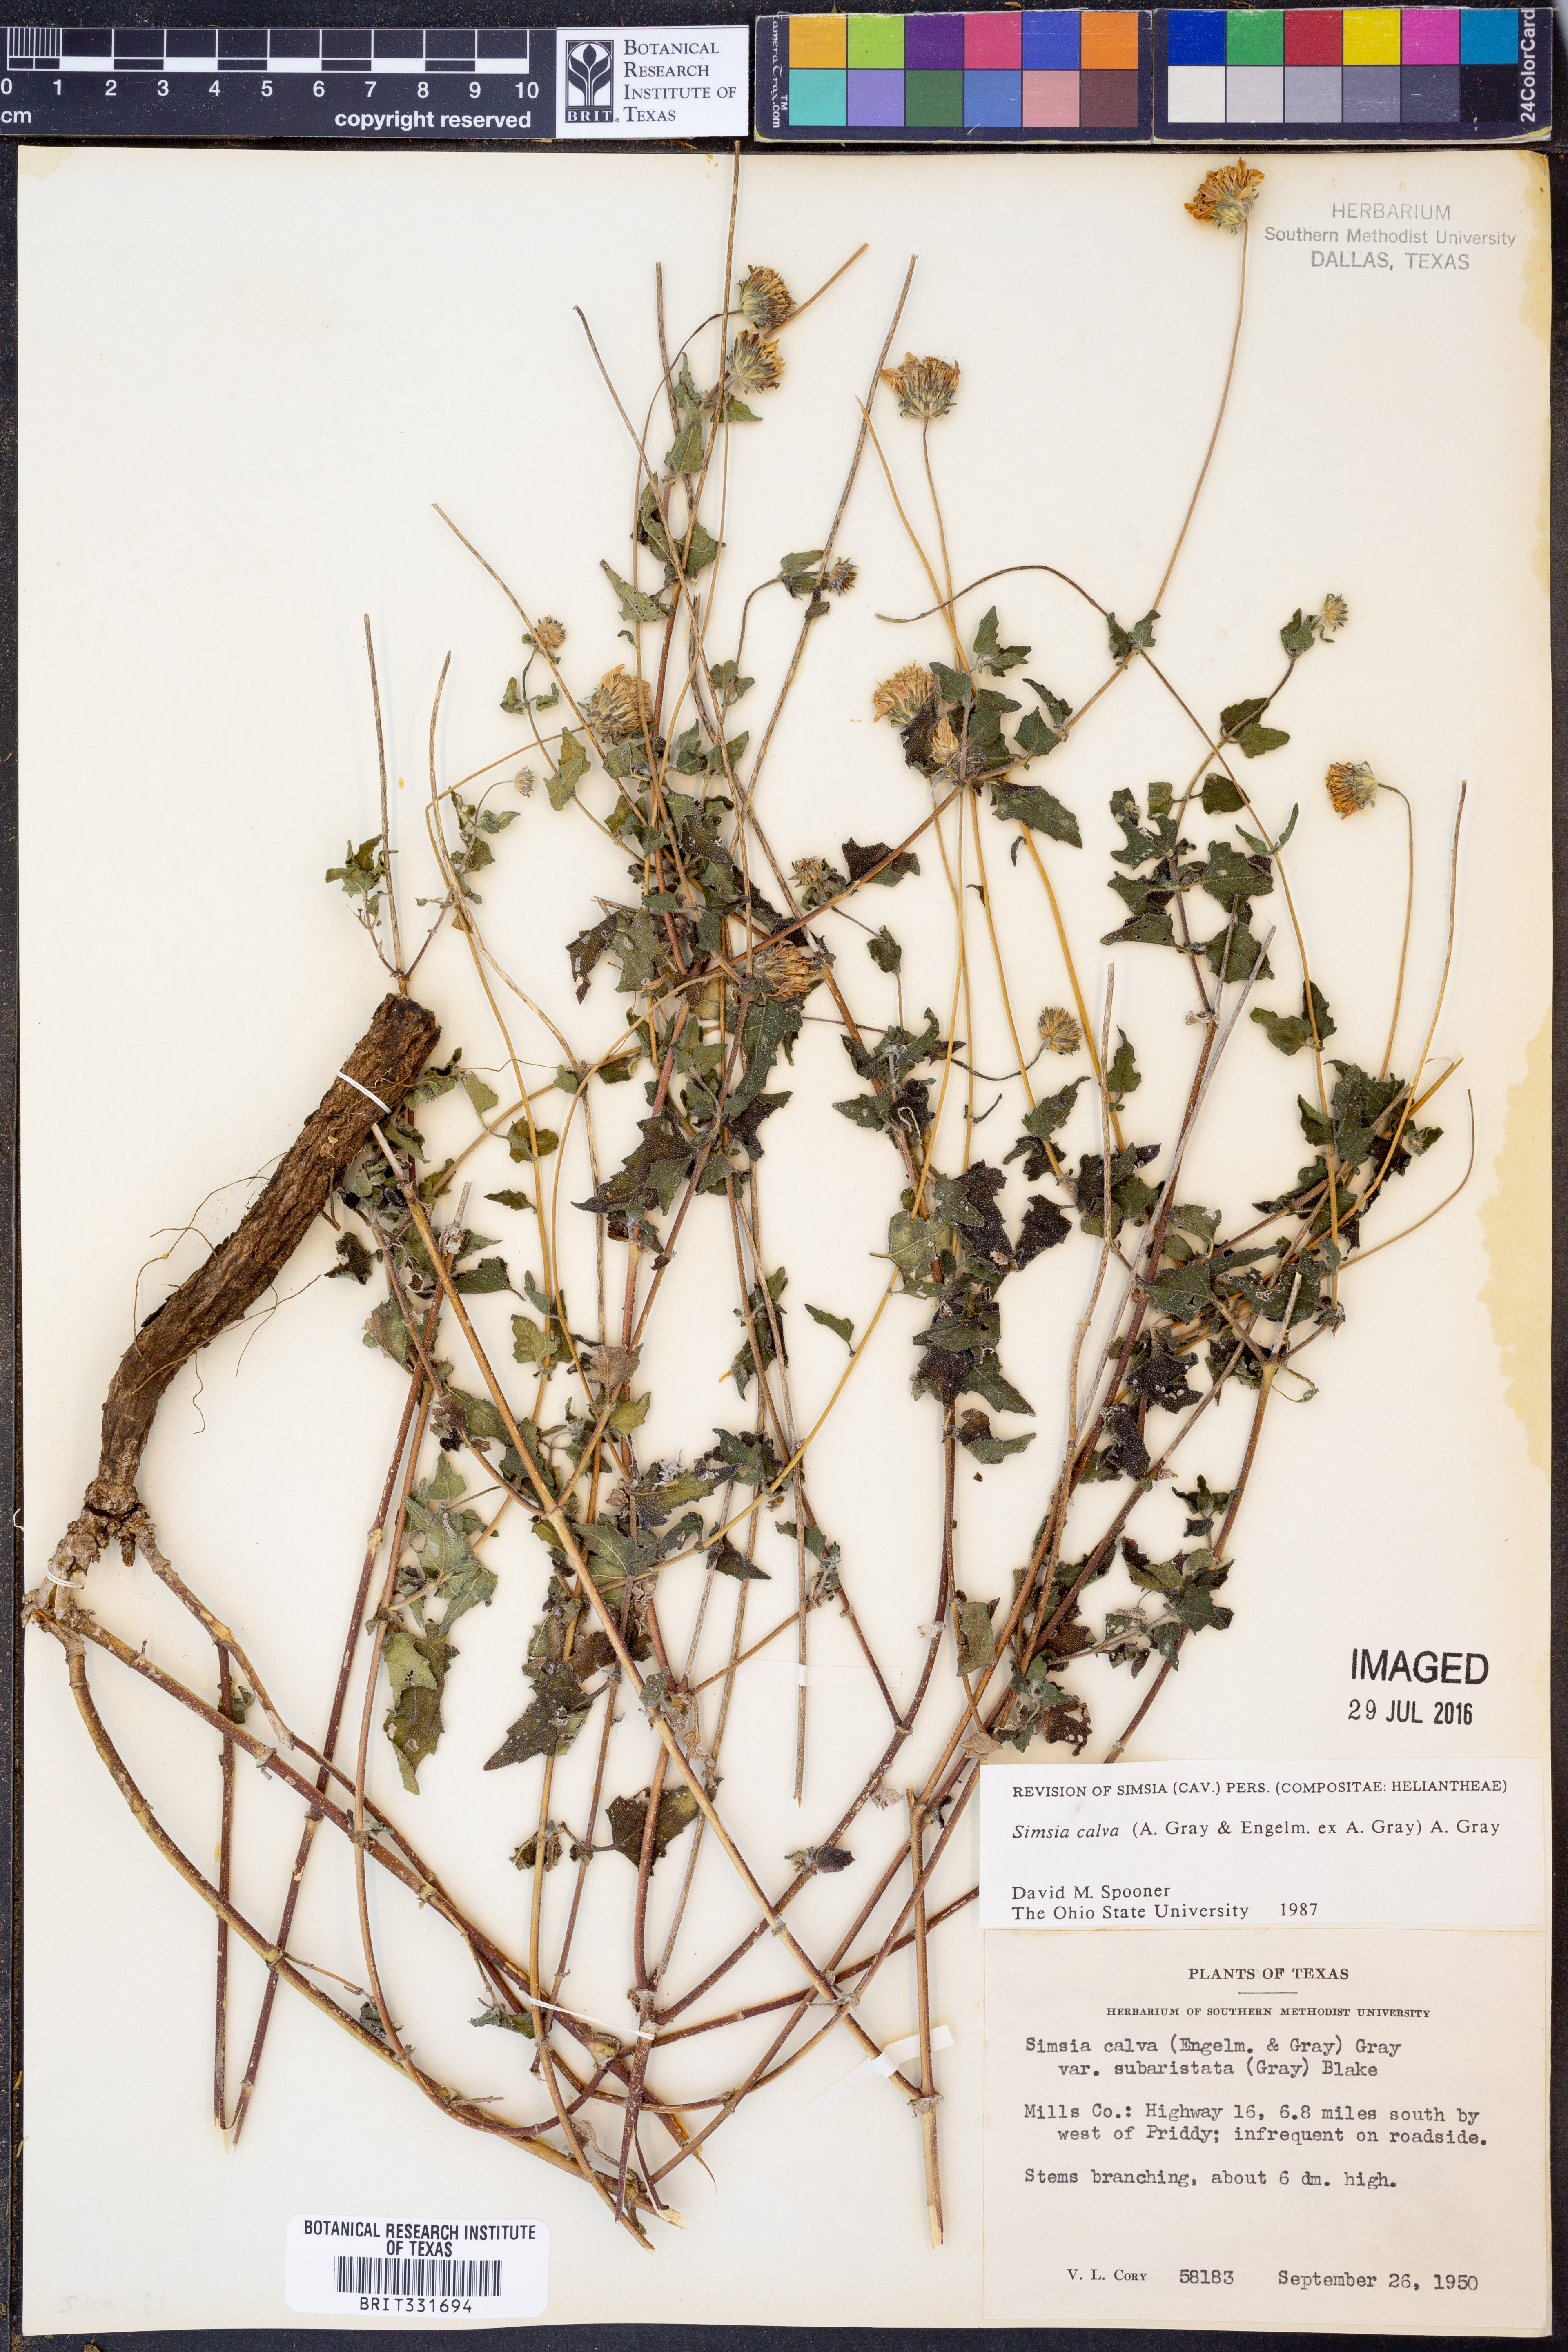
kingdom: Plantae
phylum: Tracheophyta
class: Magnoliopsida
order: Asterales
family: Asteraceae
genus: Simsia
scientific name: Simsia calva
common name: Awnless bush-sunflower
